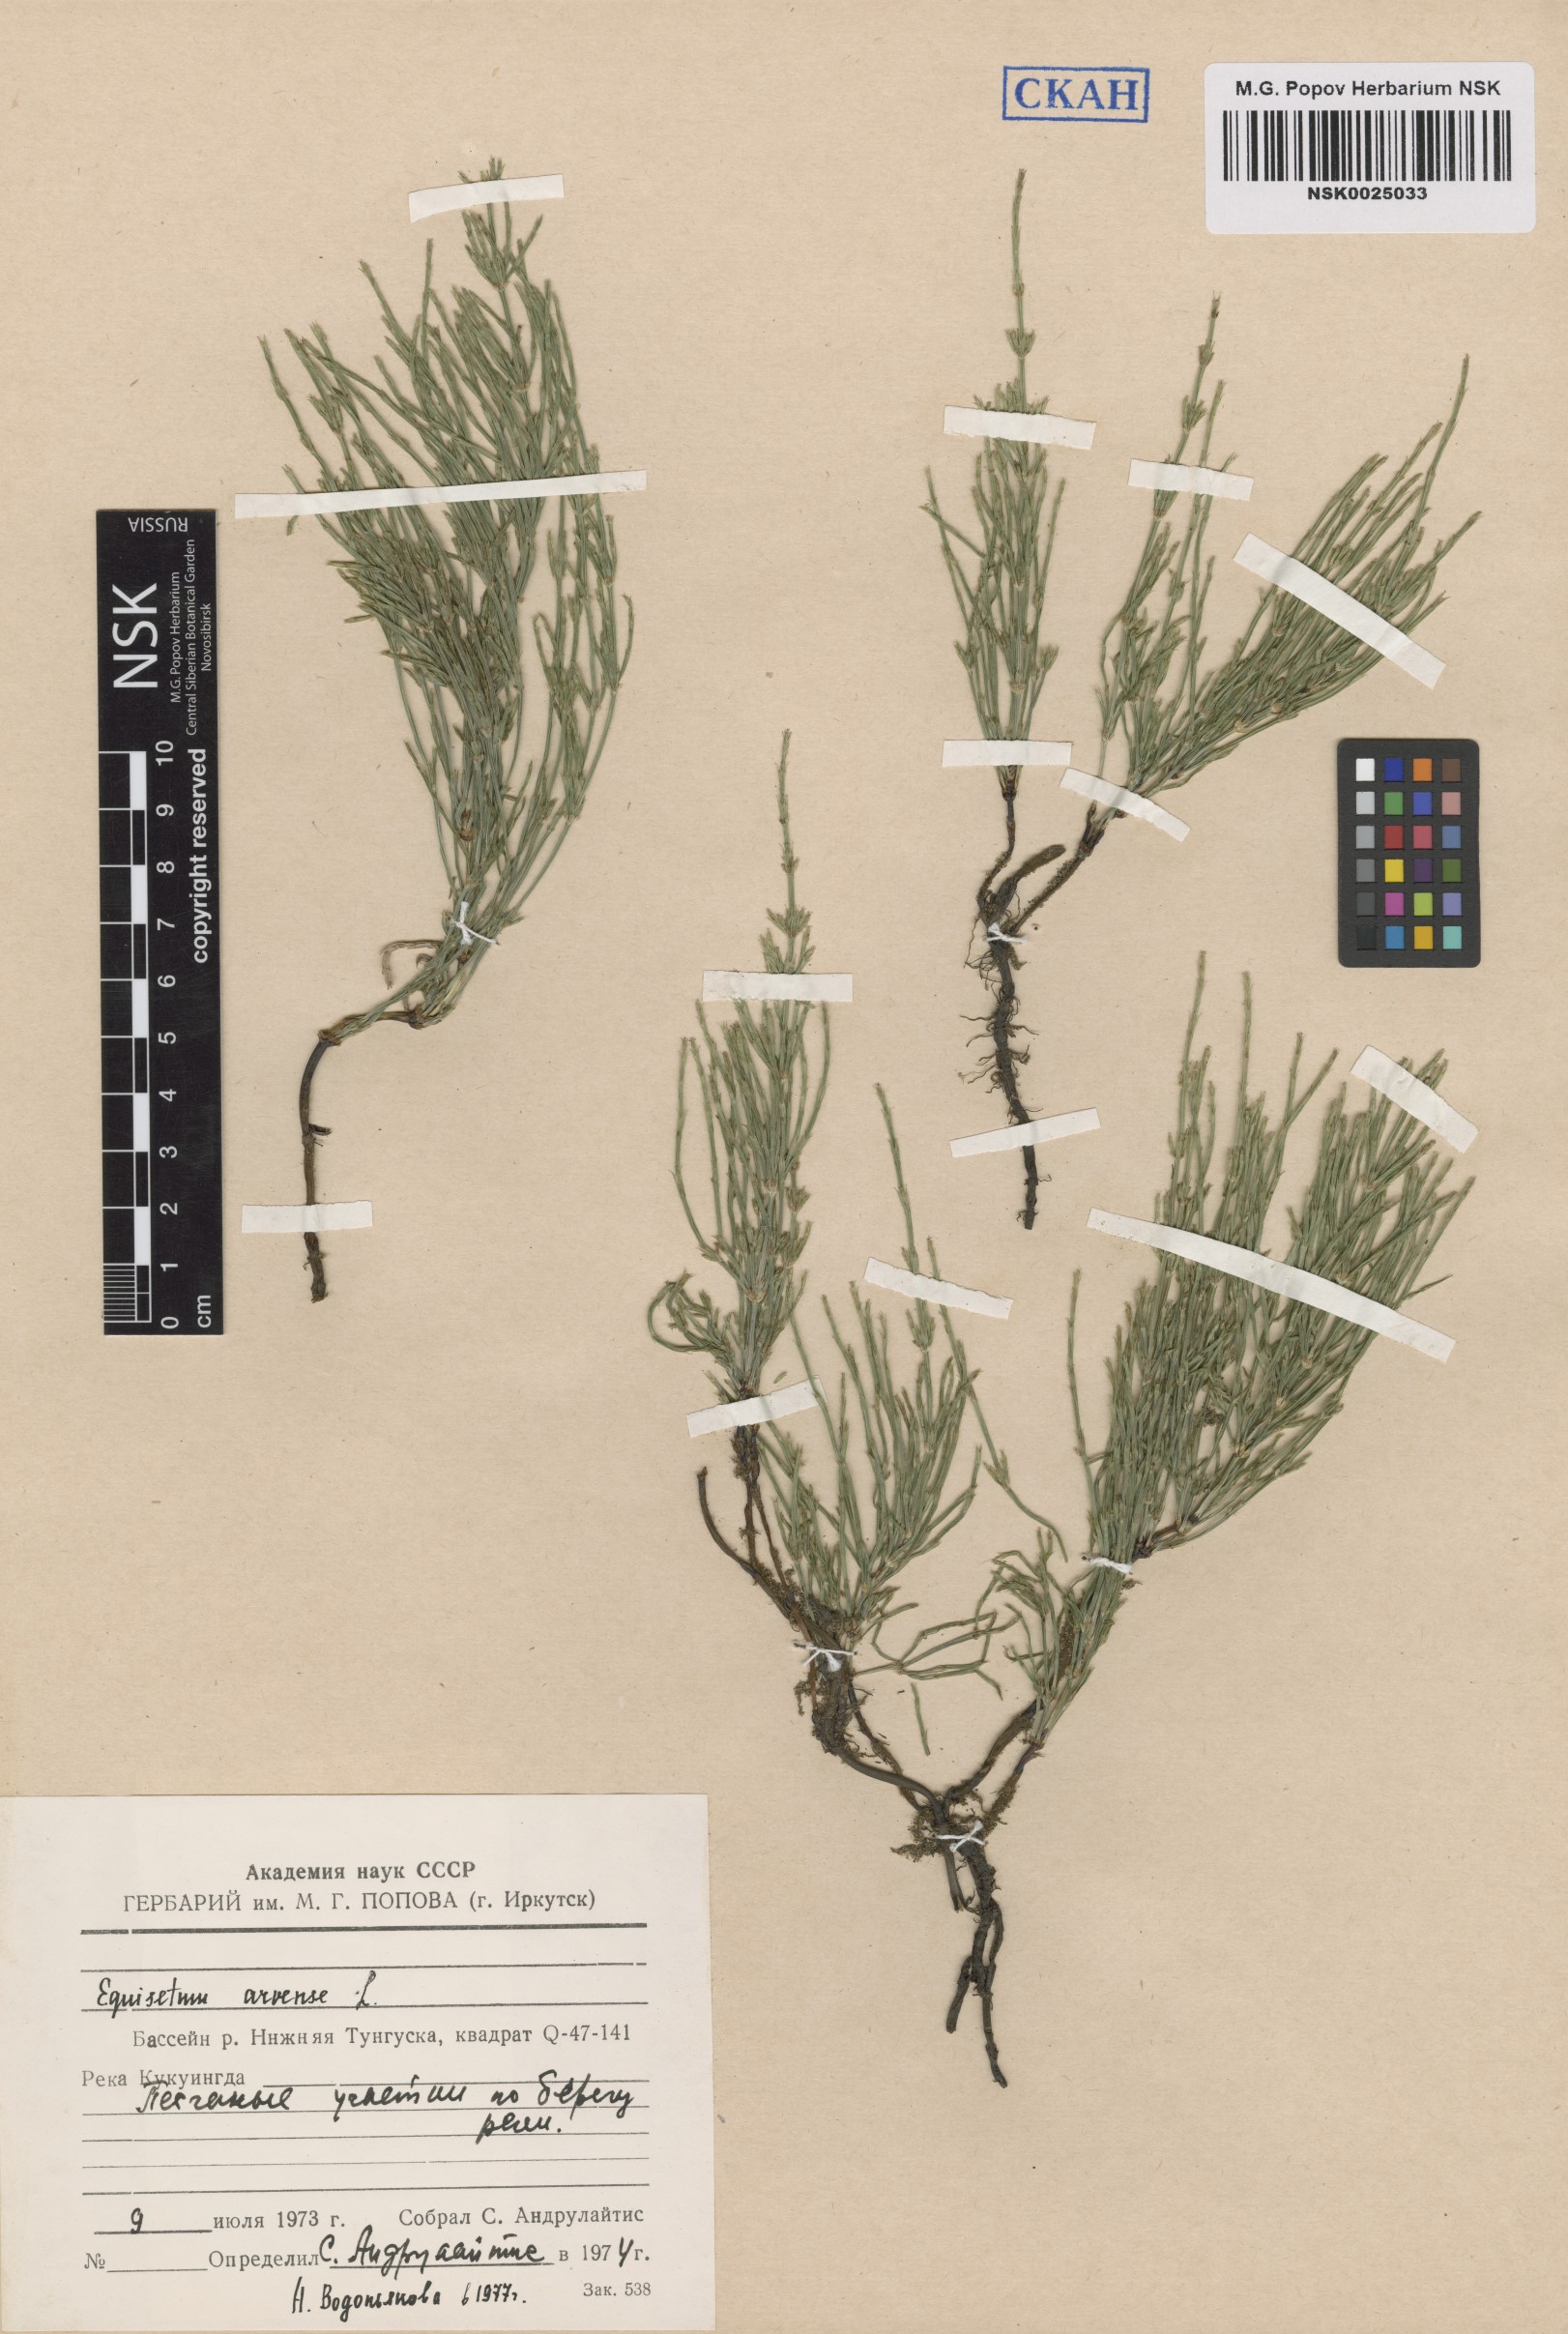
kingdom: Plantae
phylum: Tracheophyta
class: Polypodiopsida
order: Equisetales
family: Equisetaceae
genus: Equisetum
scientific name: Equisetum arvense
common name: Field horsetail
